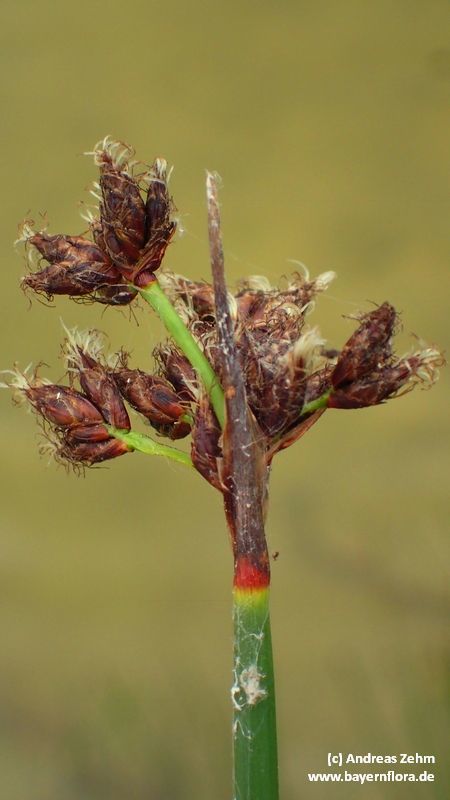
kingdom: Plantae
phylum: Tracheophyta
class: Liliopsida
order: Poales
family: Cyperaceae
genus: Schoenoplectus
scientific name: Schoenoplectus lacustris
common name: Common club-rush
